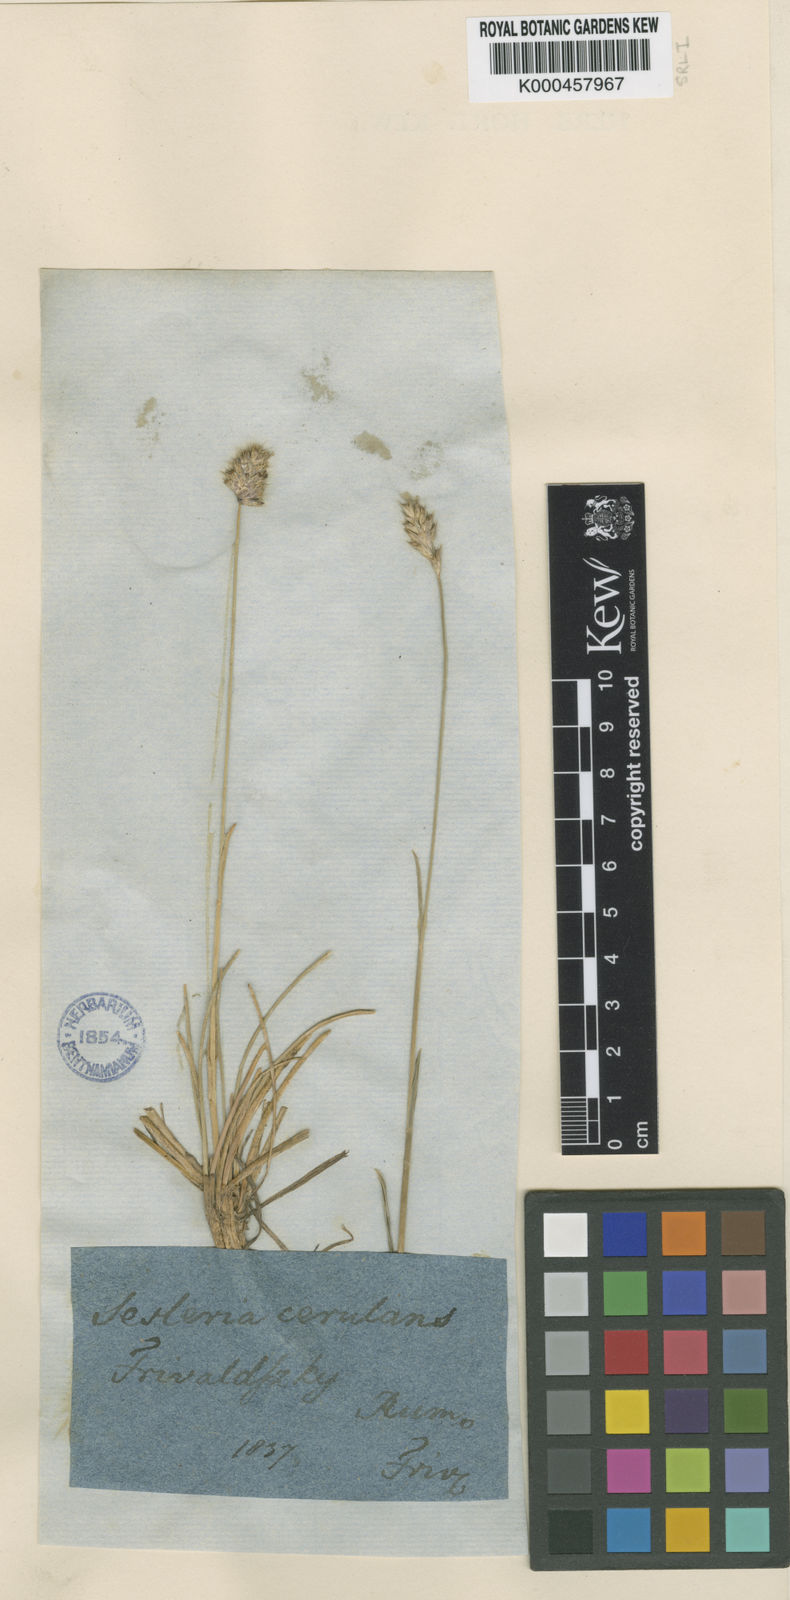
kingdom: Plantae
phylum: Tracheophyta
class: Liliopsida
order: Poales
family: Poaceae
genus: Sesleria
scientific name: Sesleria coerulans
